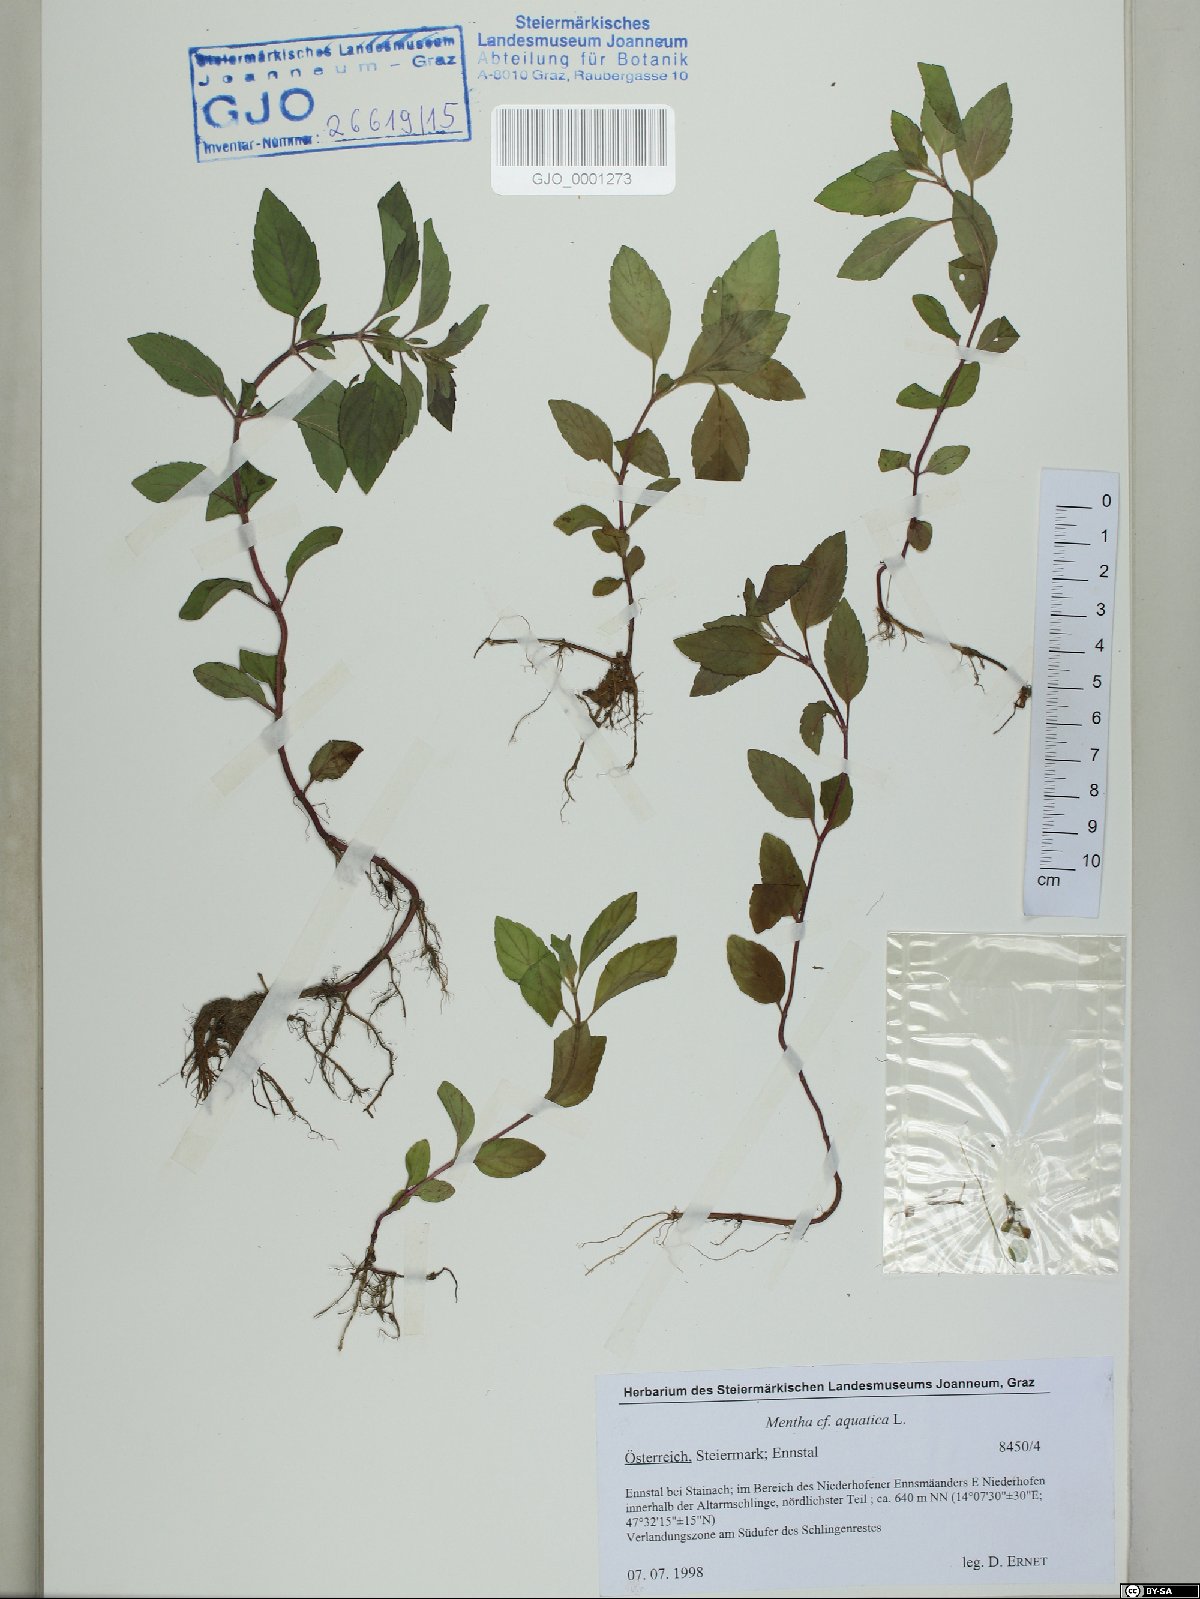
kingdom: Plantae
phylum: Tracheophyta
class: Magnoliopsida
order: Lamiales
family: Lamiaceae
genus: Mentha
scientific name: Mentha aquatica
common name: Water mint
